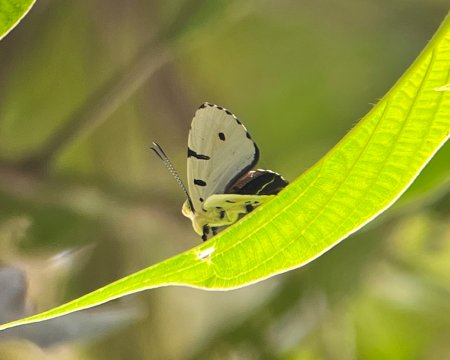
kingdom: Animalia
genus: Anteros
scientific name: Anteros allectus
